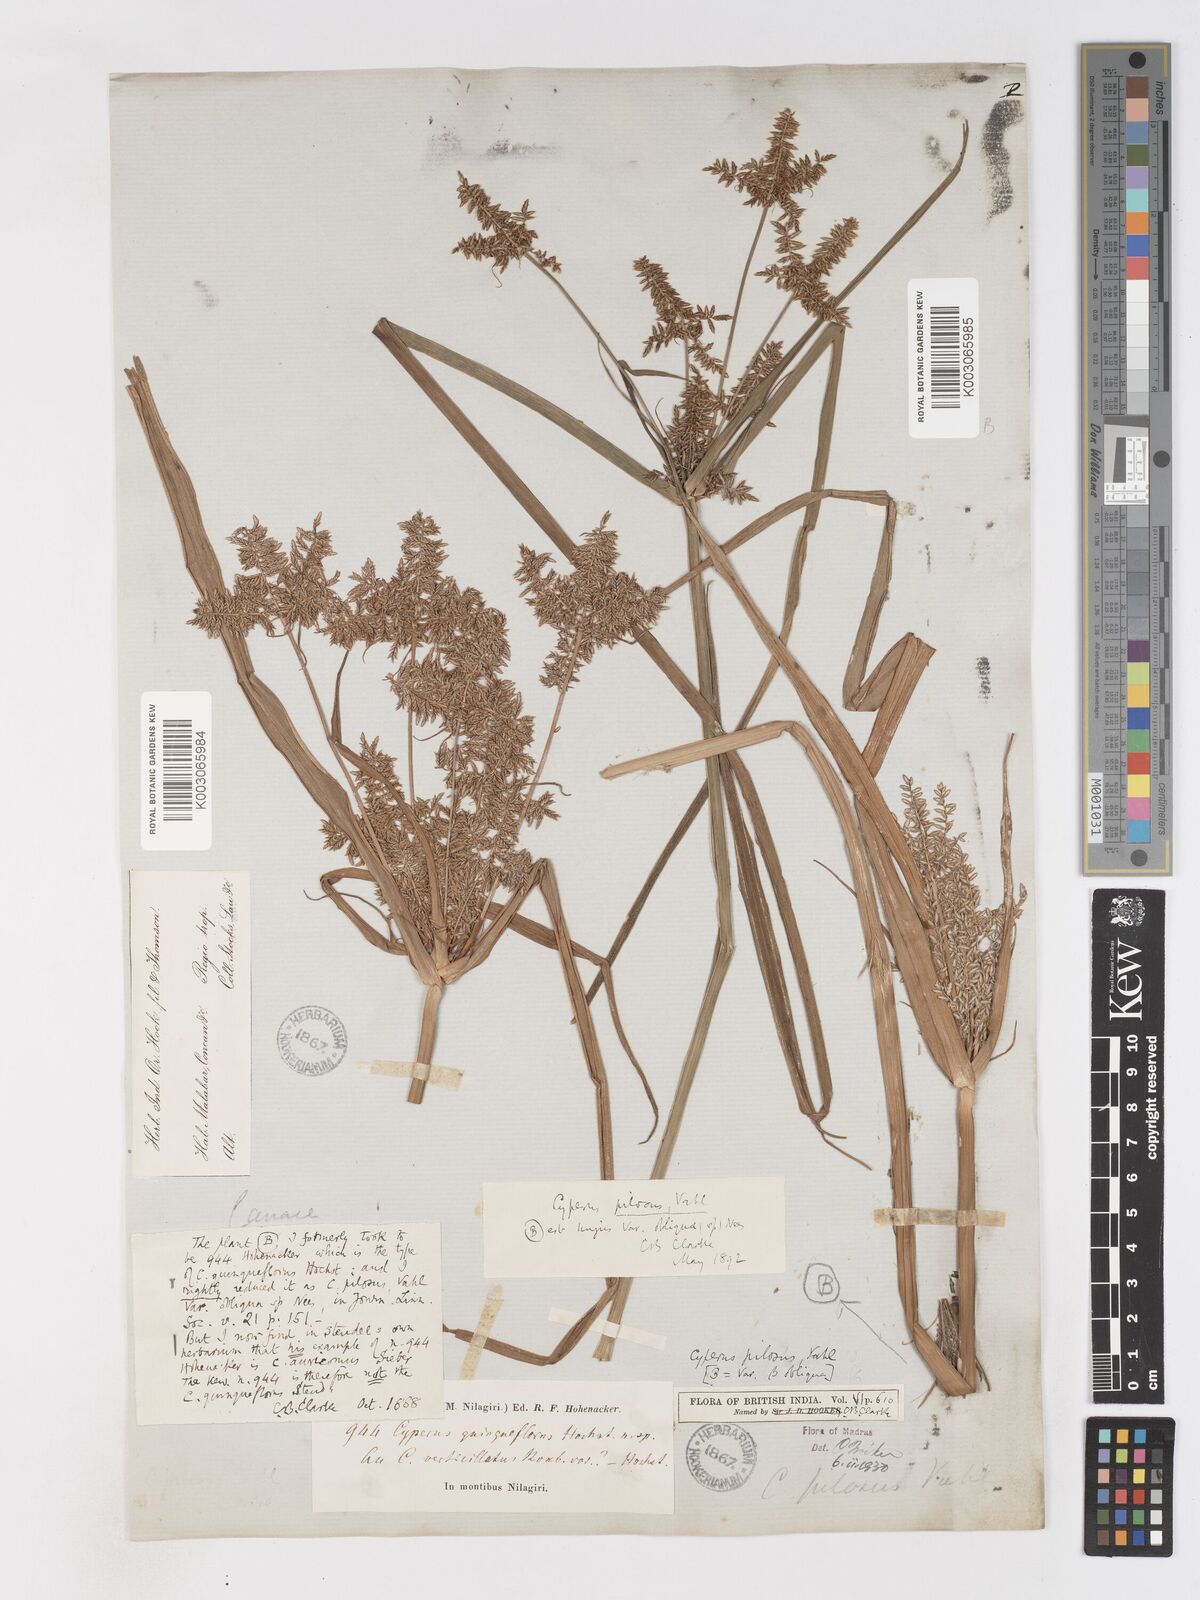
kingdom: Plantae
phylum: Tracheophyta
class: Liliopsida
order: Poales
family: Cyperaceae
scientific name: Cyperaceae
